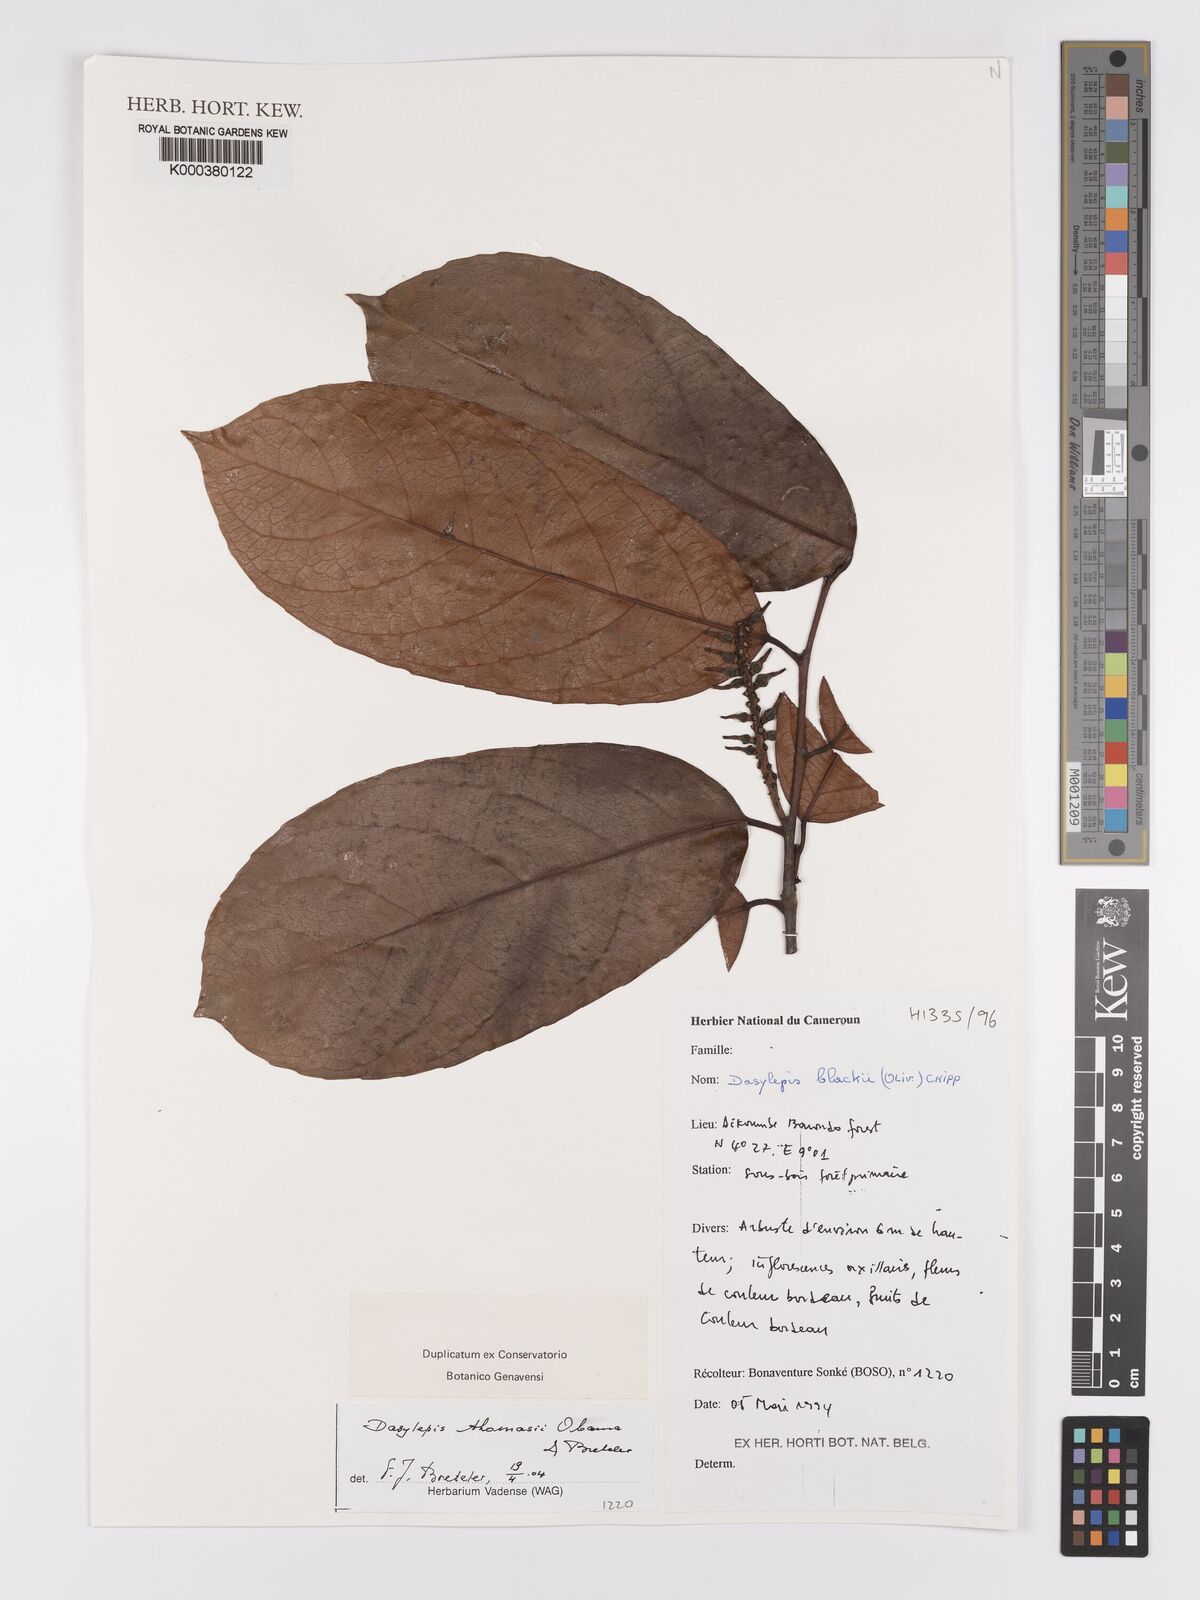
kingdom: Plantae
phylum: Tracheophyta
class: Magnoliopsida
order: Malpighiales
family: Achariaceae
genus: Dasylepis
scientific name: Dasylepis thomasii
